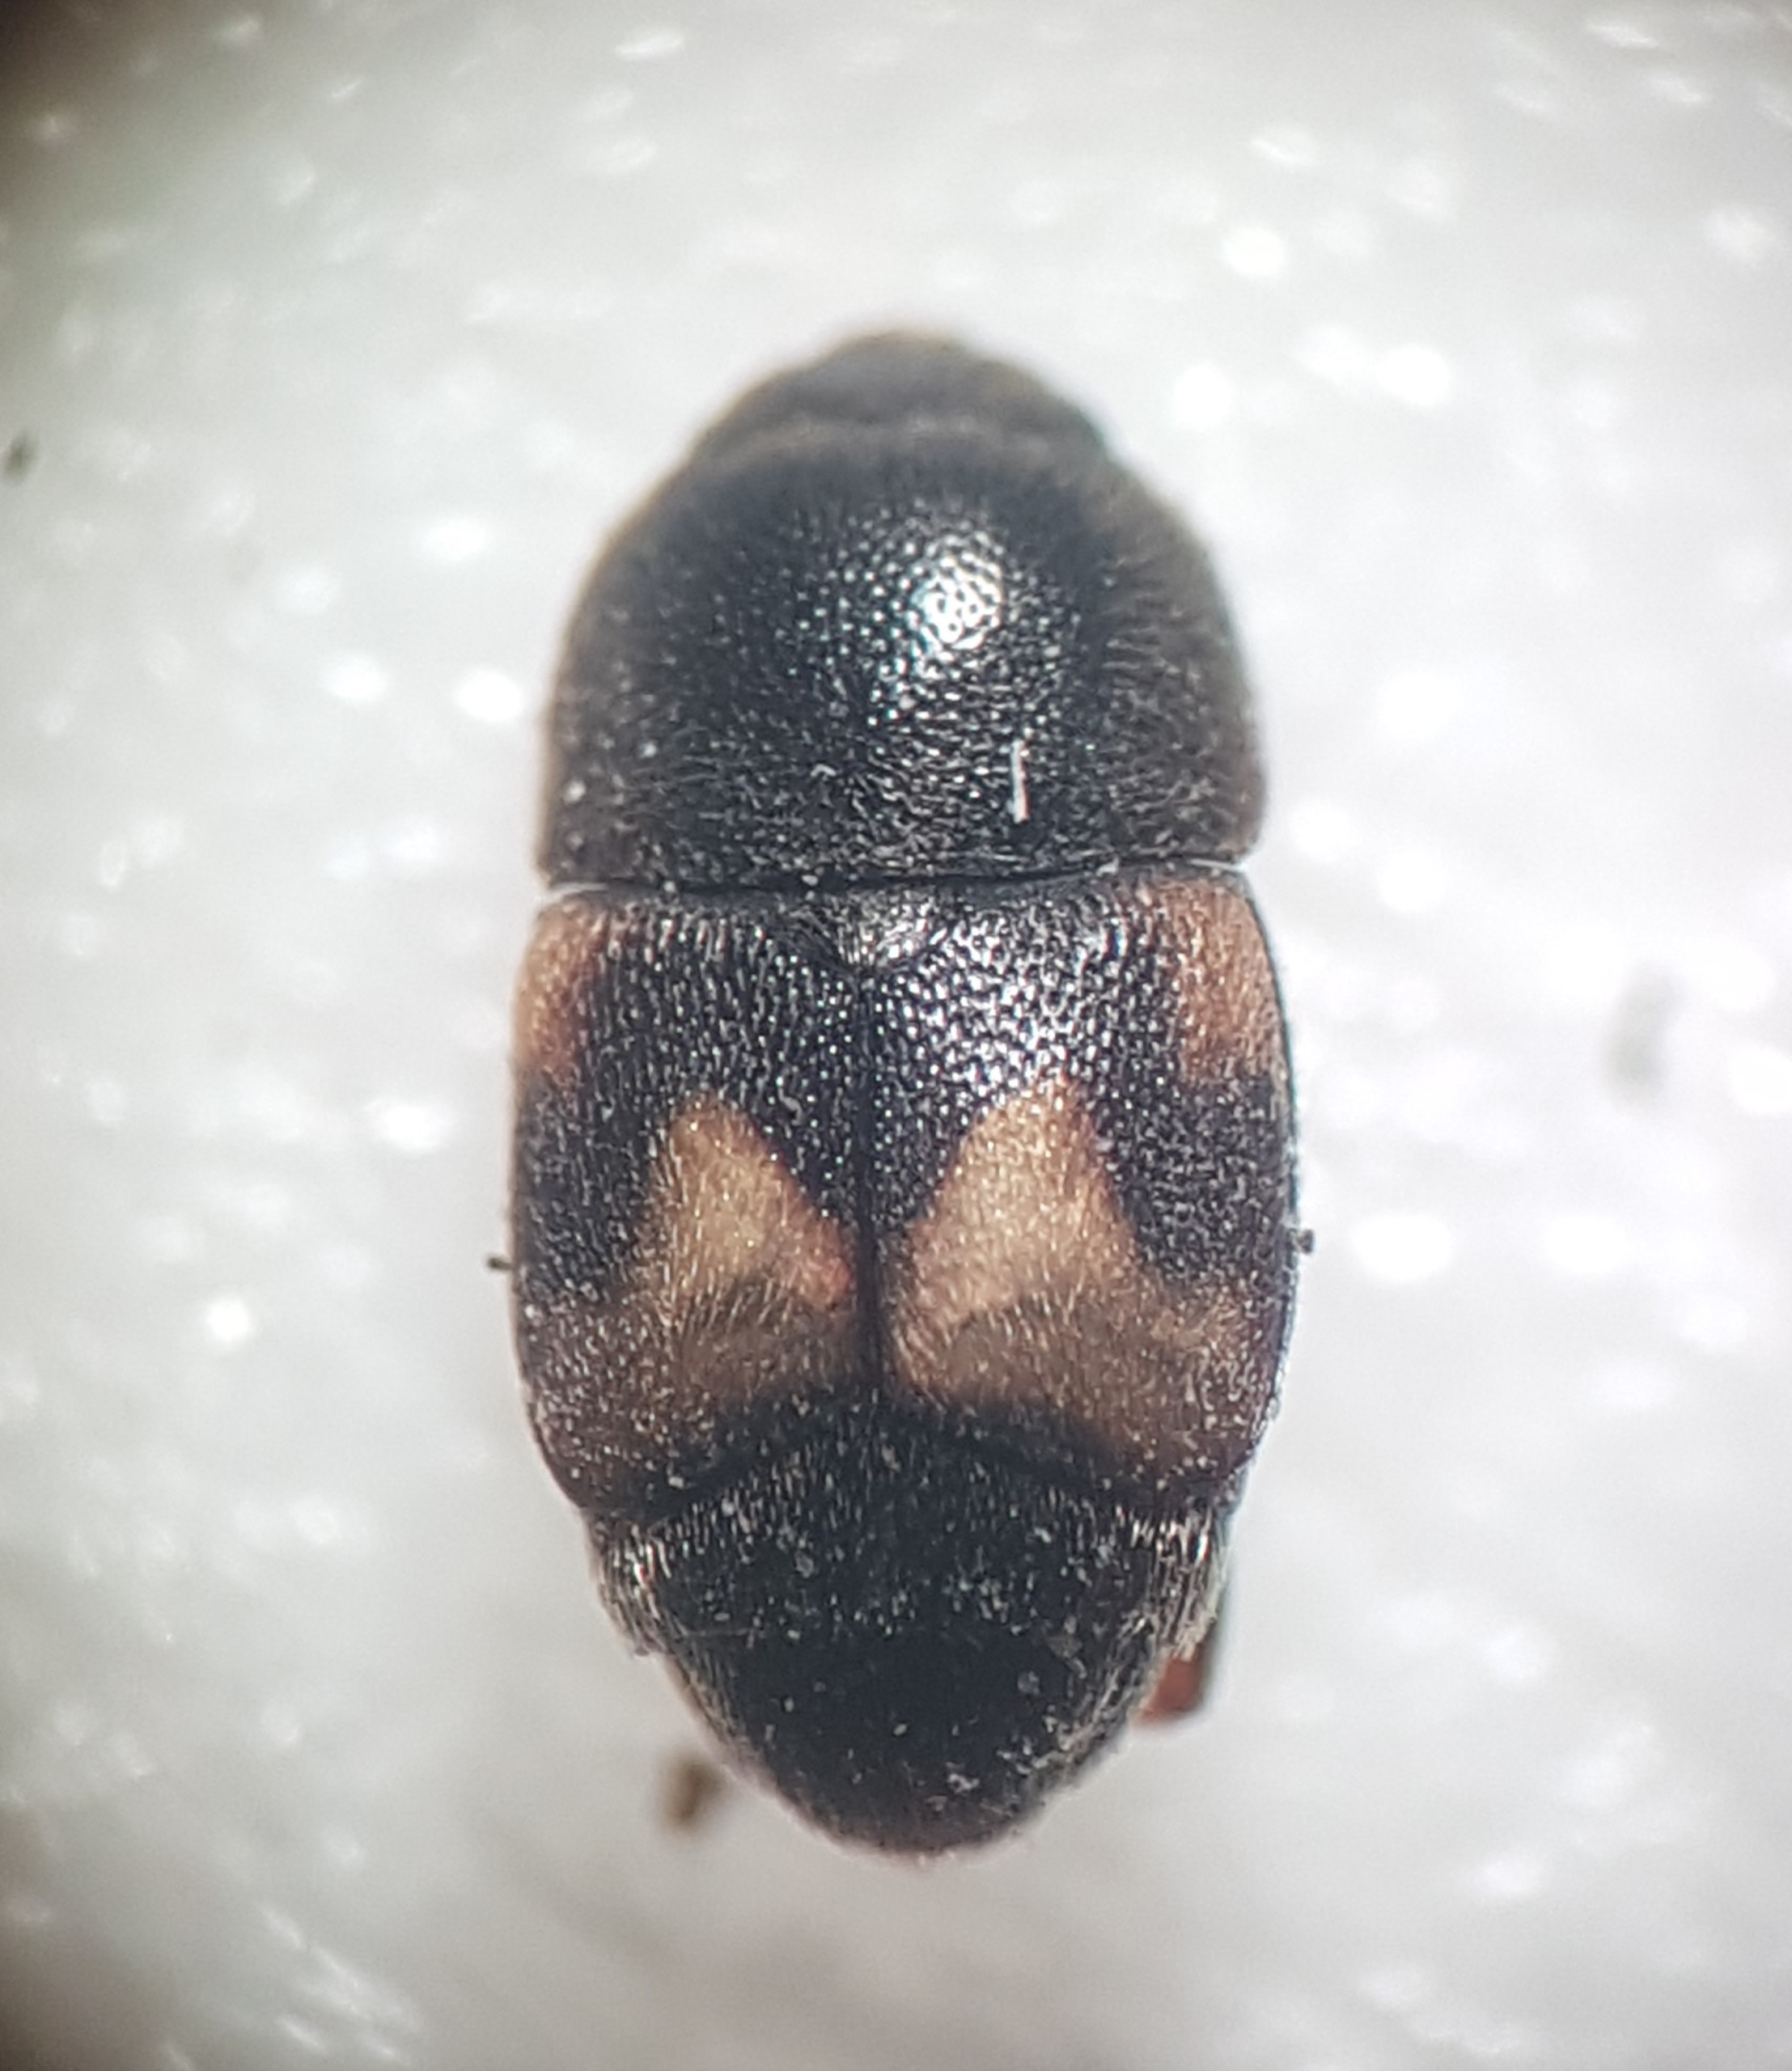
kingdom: Animalia
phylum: Arthropoda
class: Insecta
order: Coleoptera
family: Nitidulidae
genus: Carpophilus
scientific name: Carpophilus hemipterus
